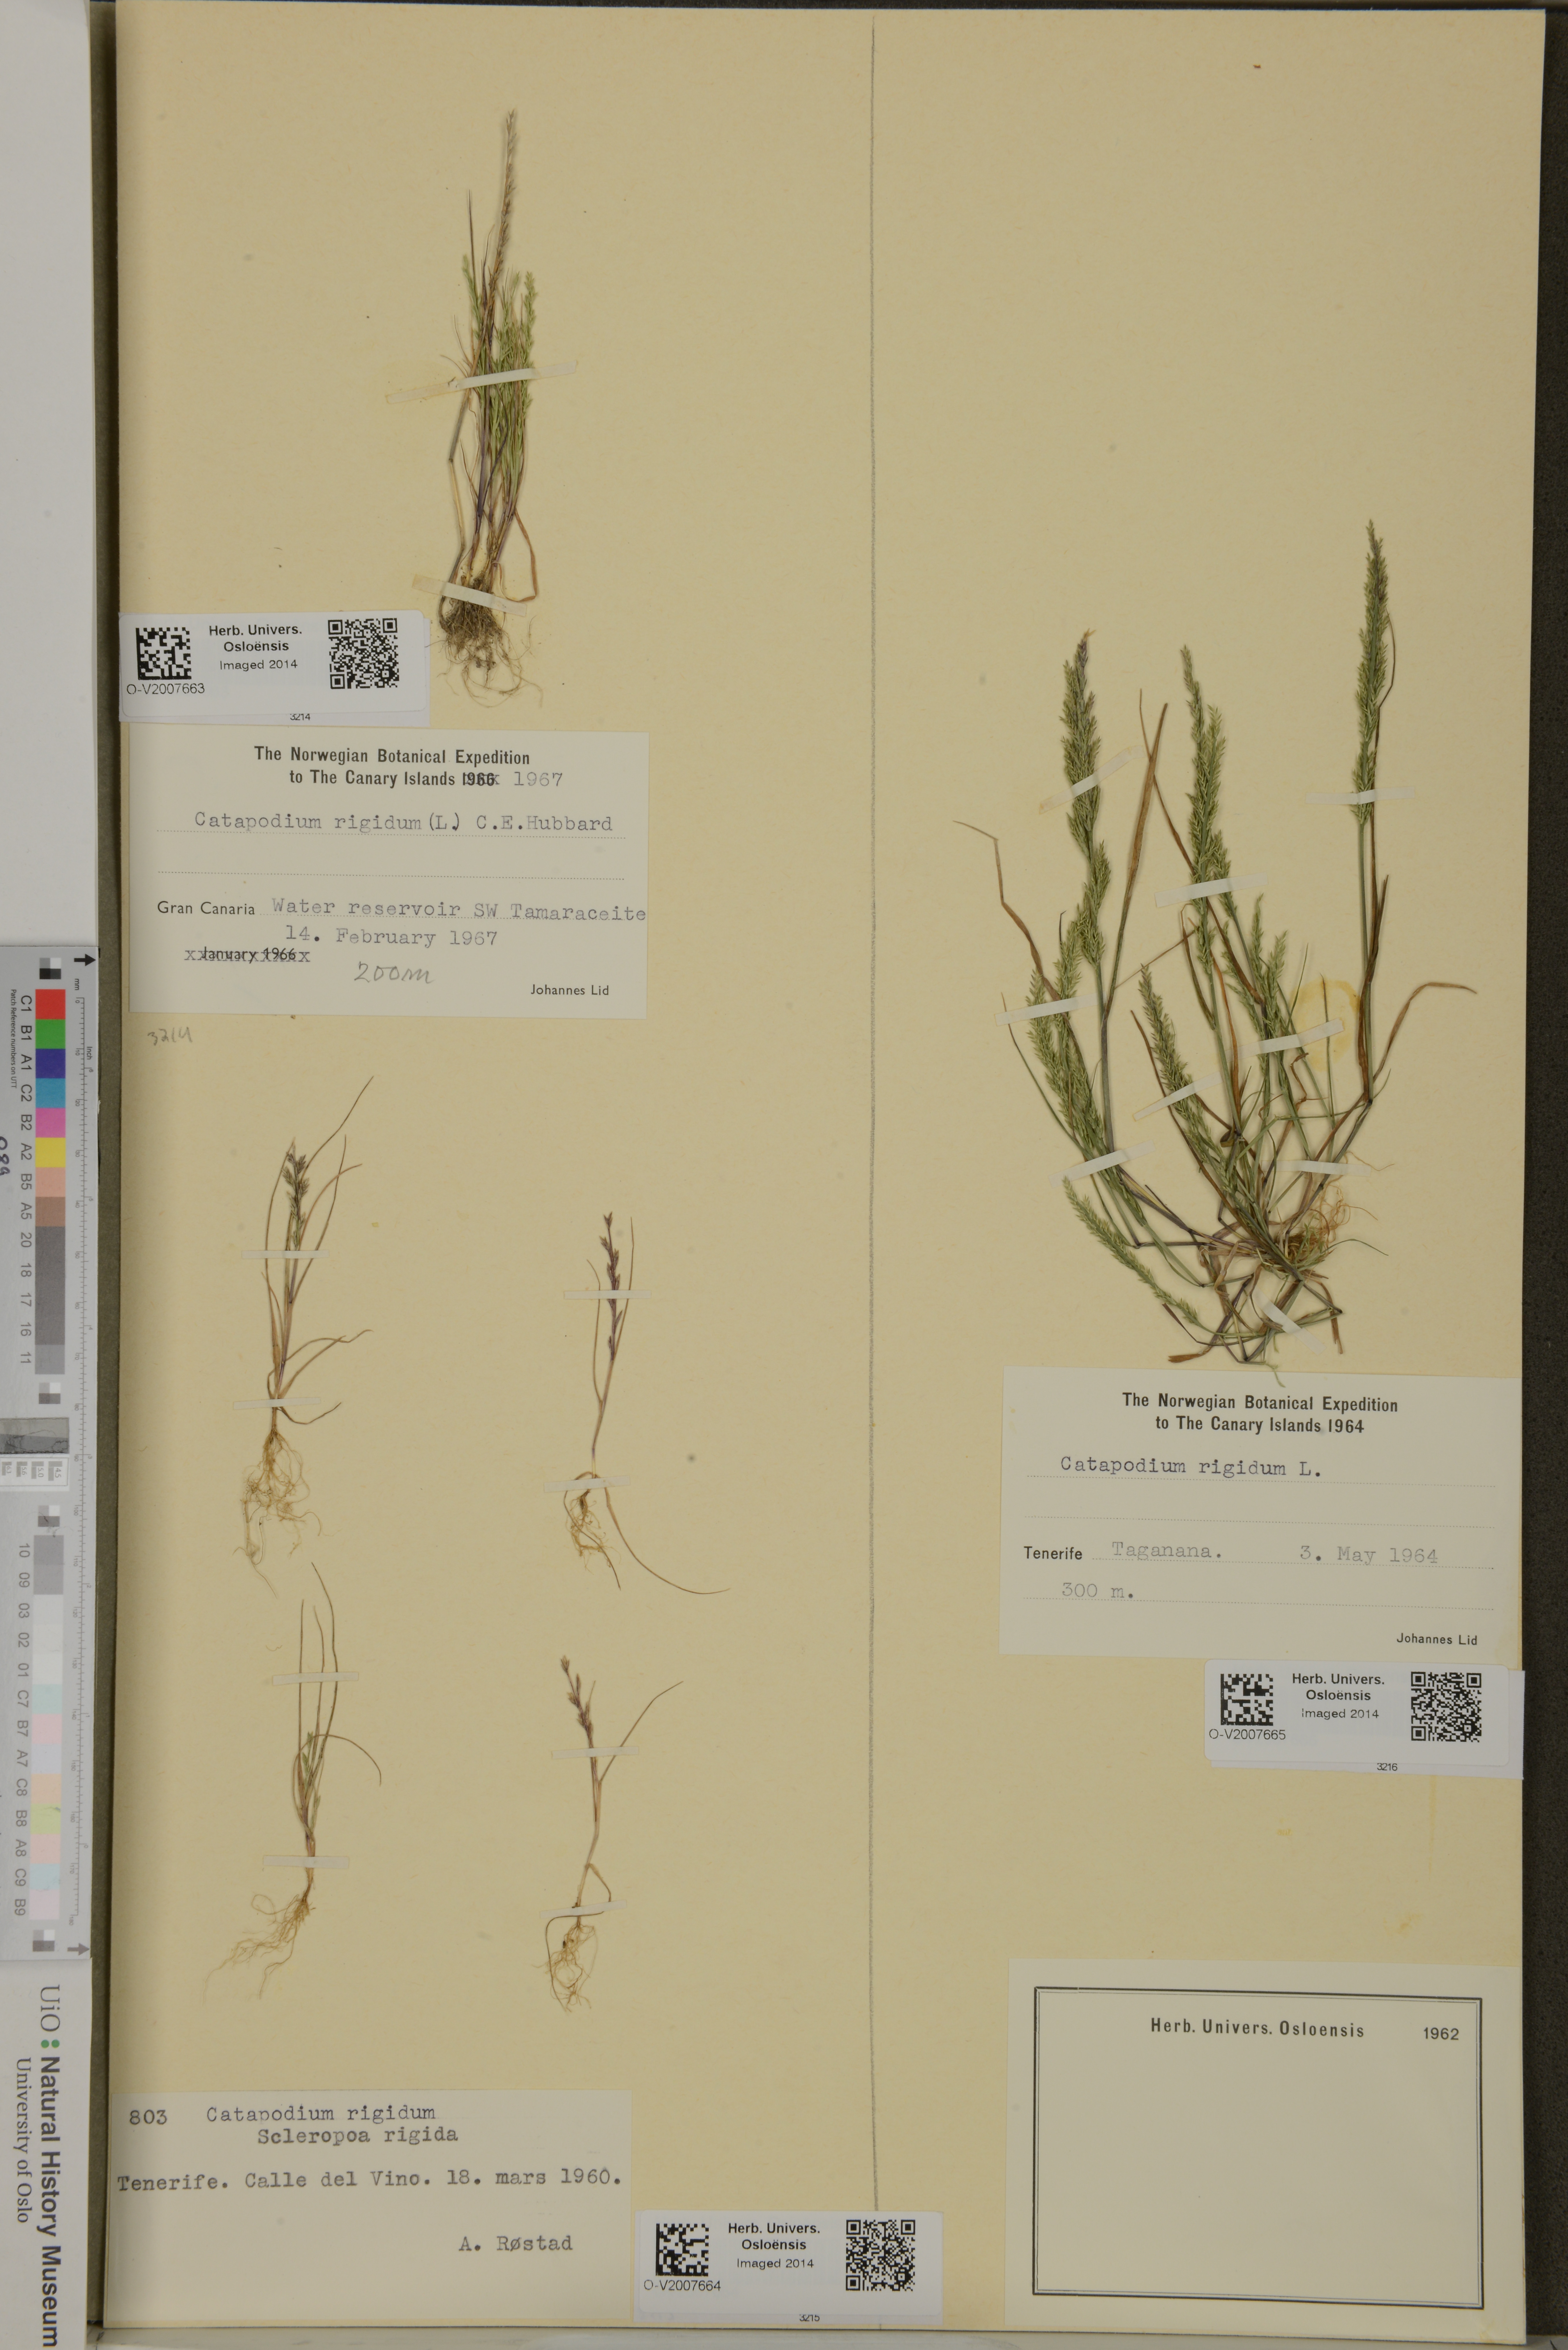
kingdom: Plantae
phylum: Tracheophyta
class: Liliopsida
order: Poales
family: Poaceae
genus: Catapodium
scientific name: Catapodium rigidum
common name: Fern-grass
